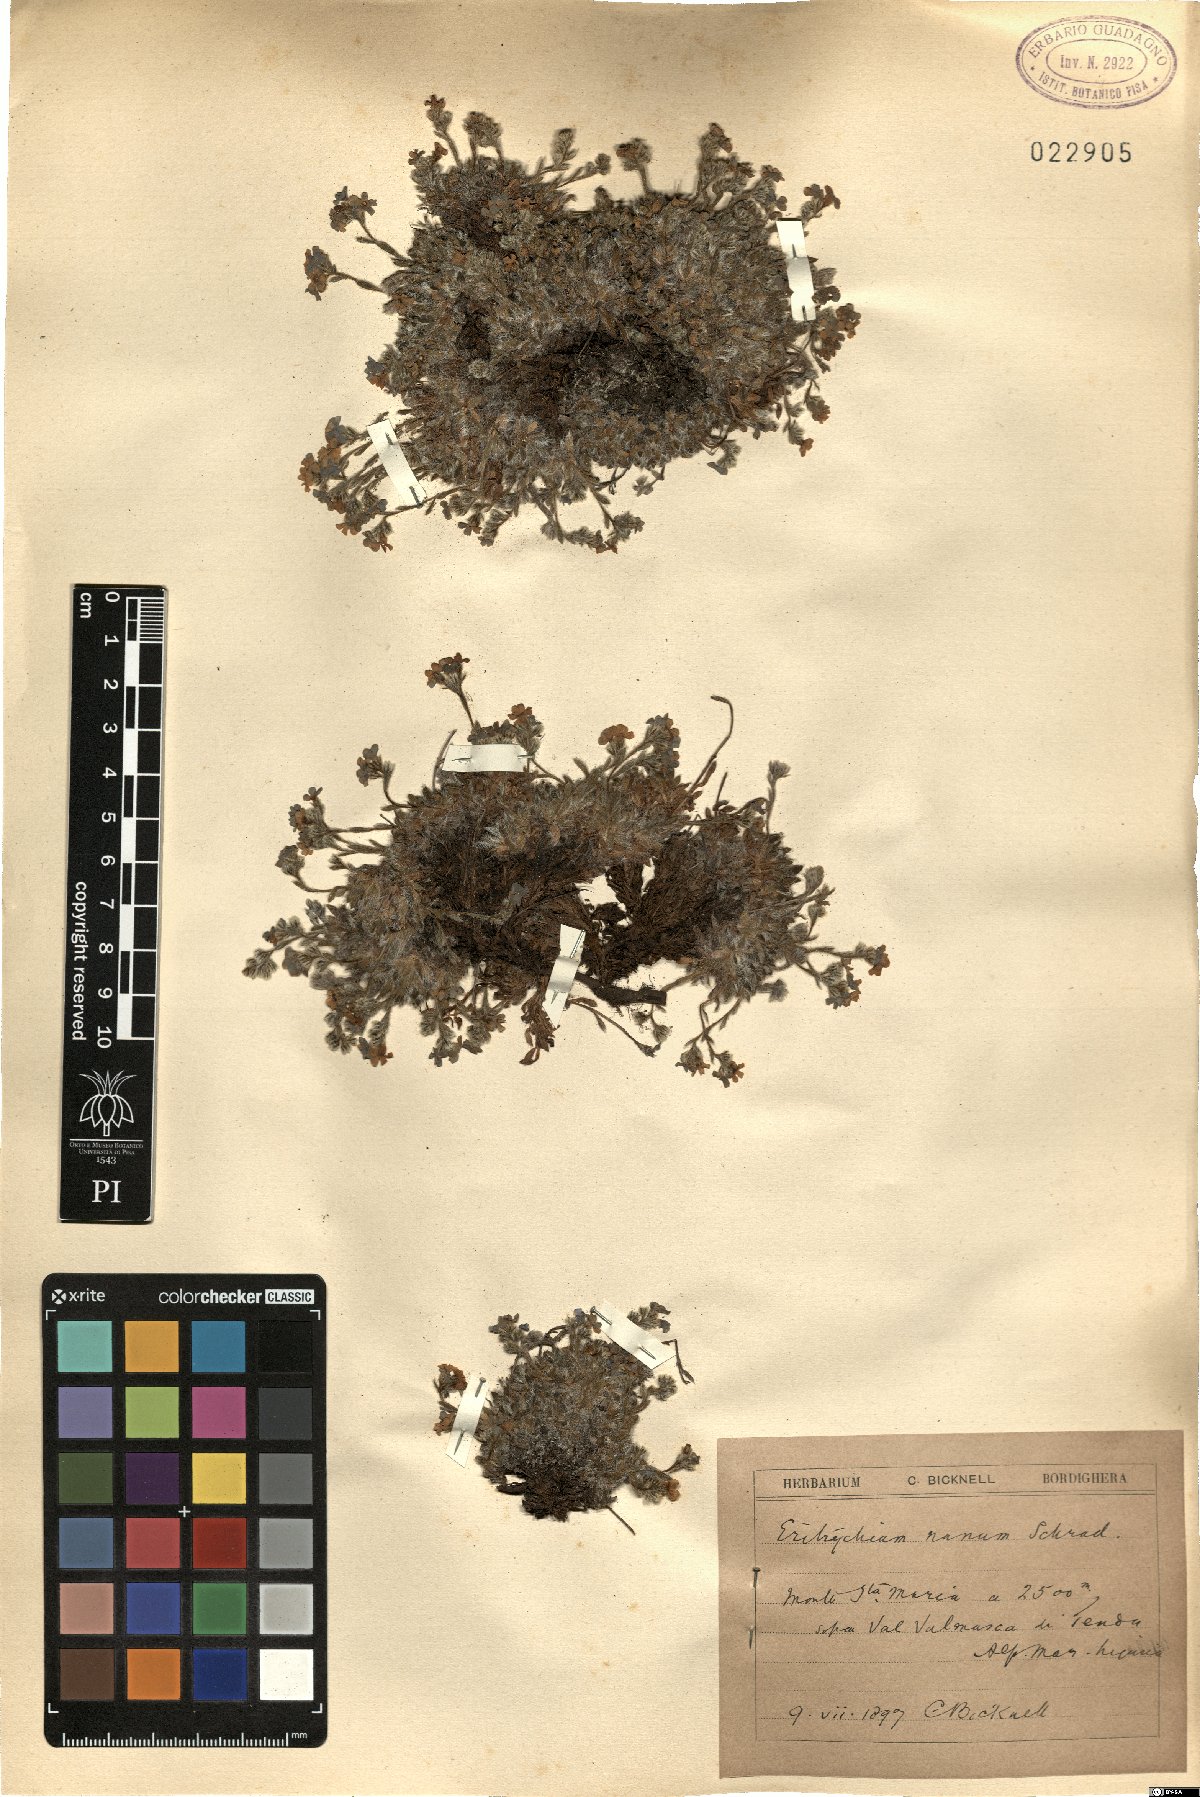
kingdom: Plantae
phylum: Tracheophyta
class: Magnoliopsida
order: Boraginales
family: Boraginaceae
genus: Eritrichium
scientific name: Eritrichium nanum
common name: King-of-the-alps
